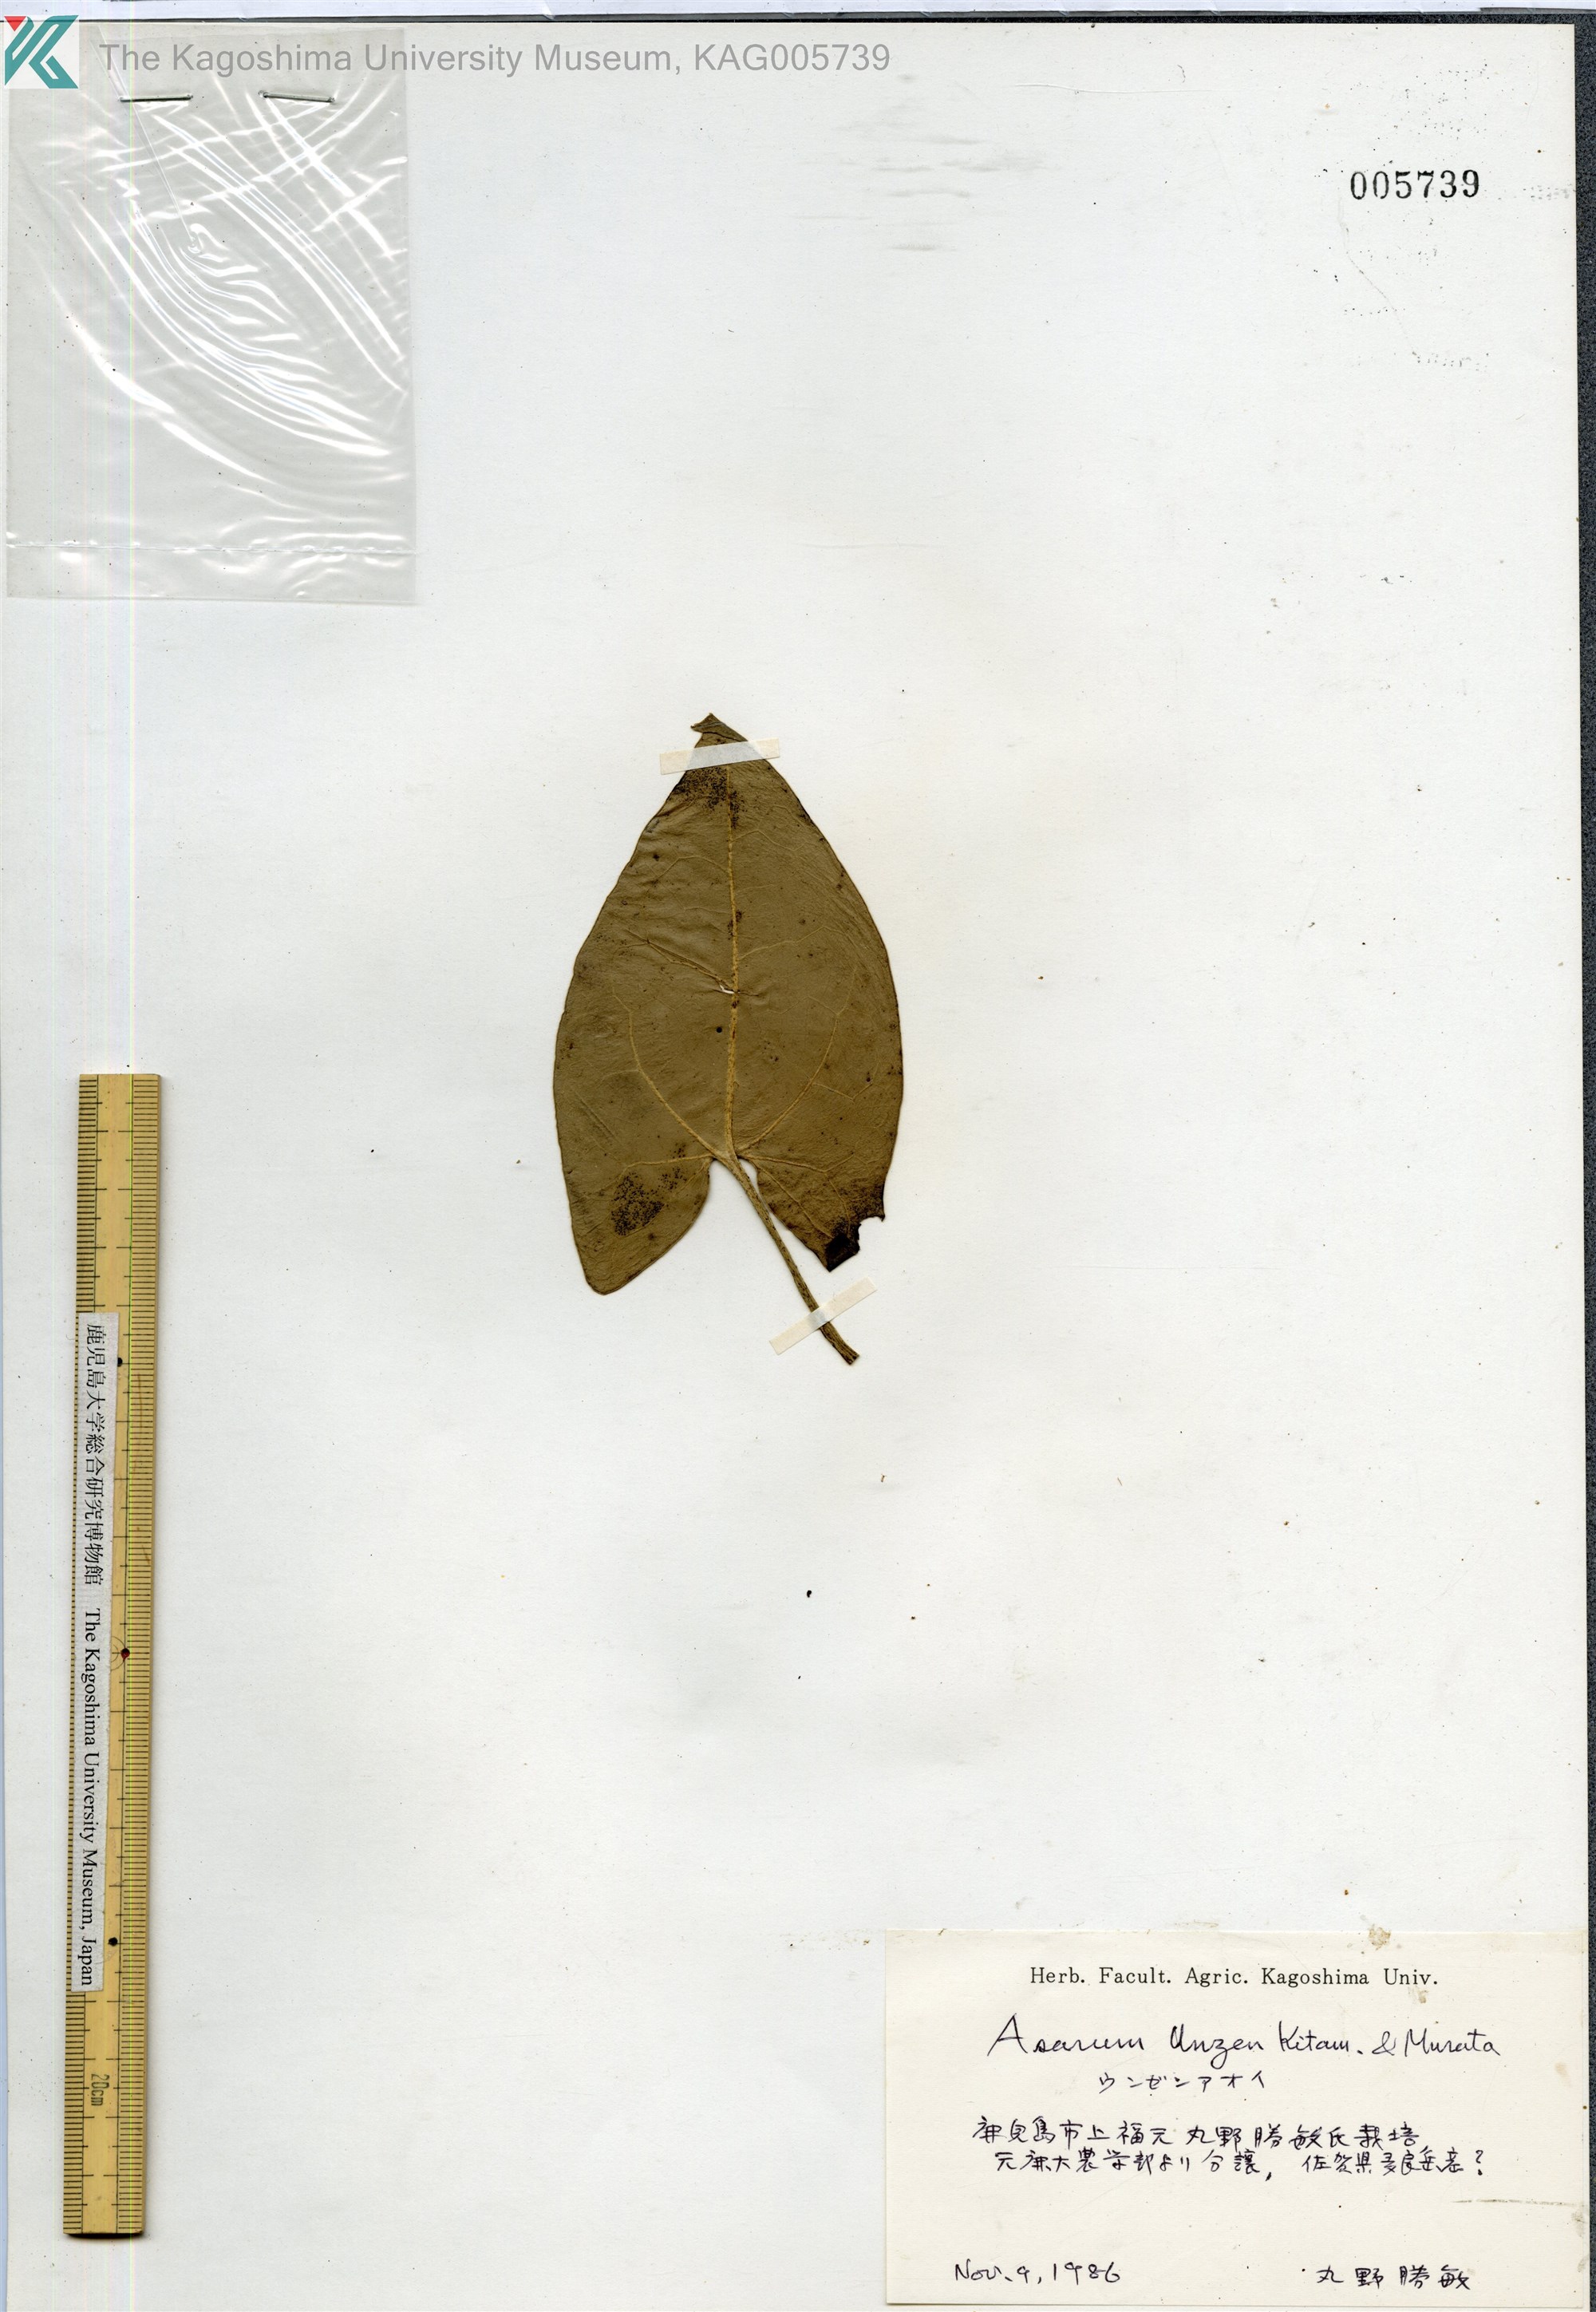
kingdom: Plantae
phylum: Tracheophyta
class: Magnoliopsida
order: Piperales
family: Aristolochiaceae
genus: Asarum
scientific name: Asarum unzen
